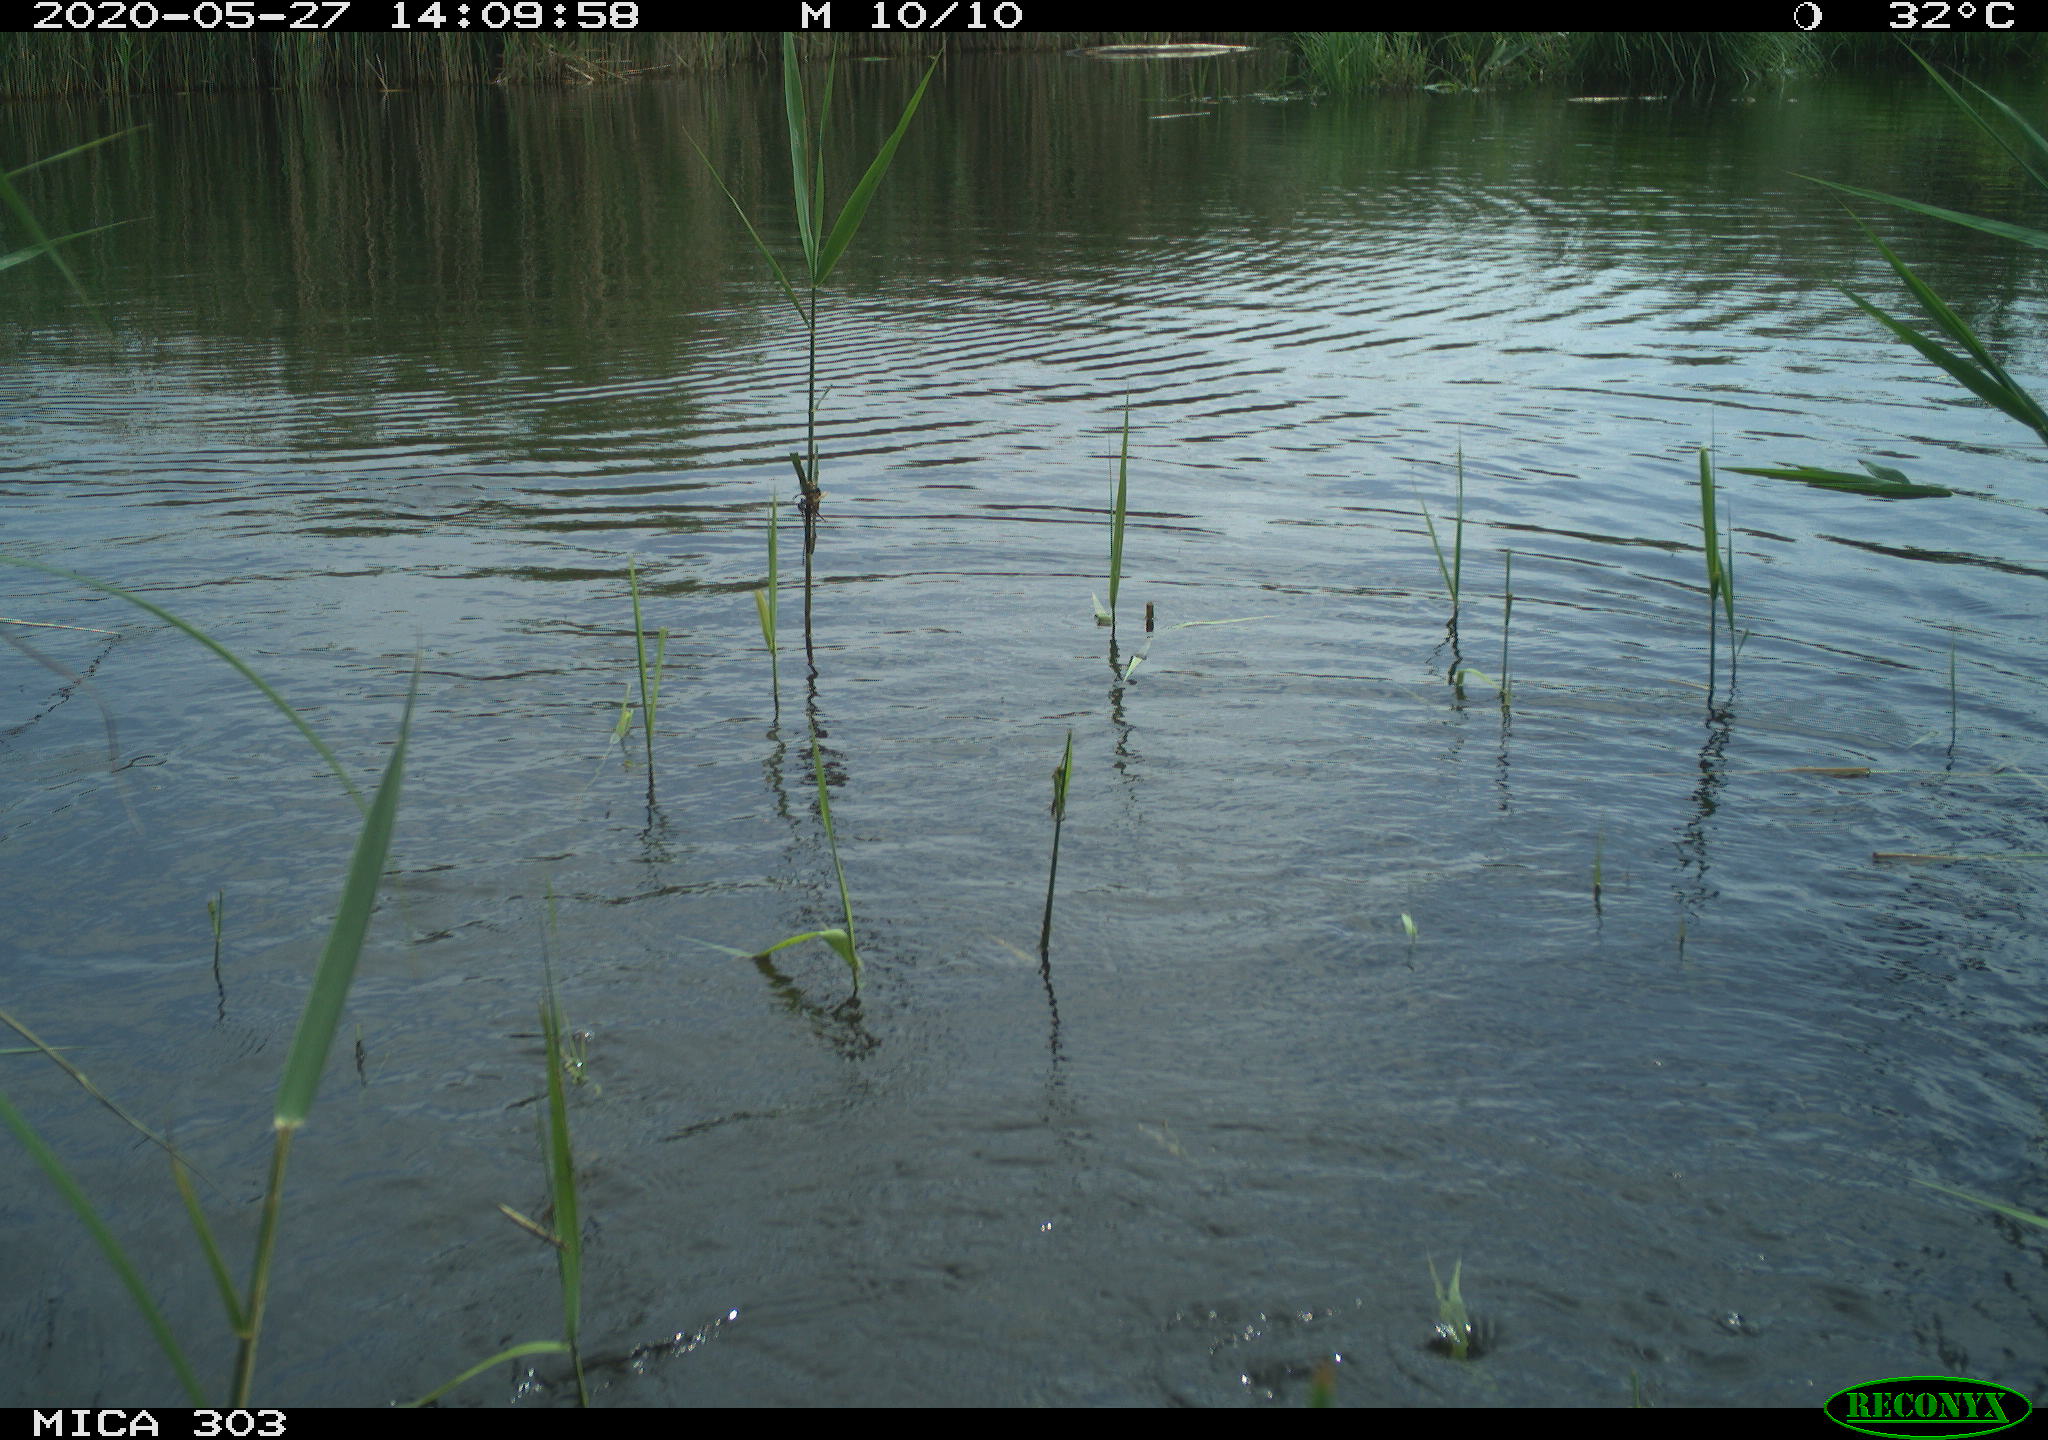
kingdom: Animalia
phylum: Chordata
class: Aves
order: Suliformes
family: Phalacrocoracidae
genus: Phalacrocorax
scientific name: Phalacrocorax carbo
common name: Great cormorant
